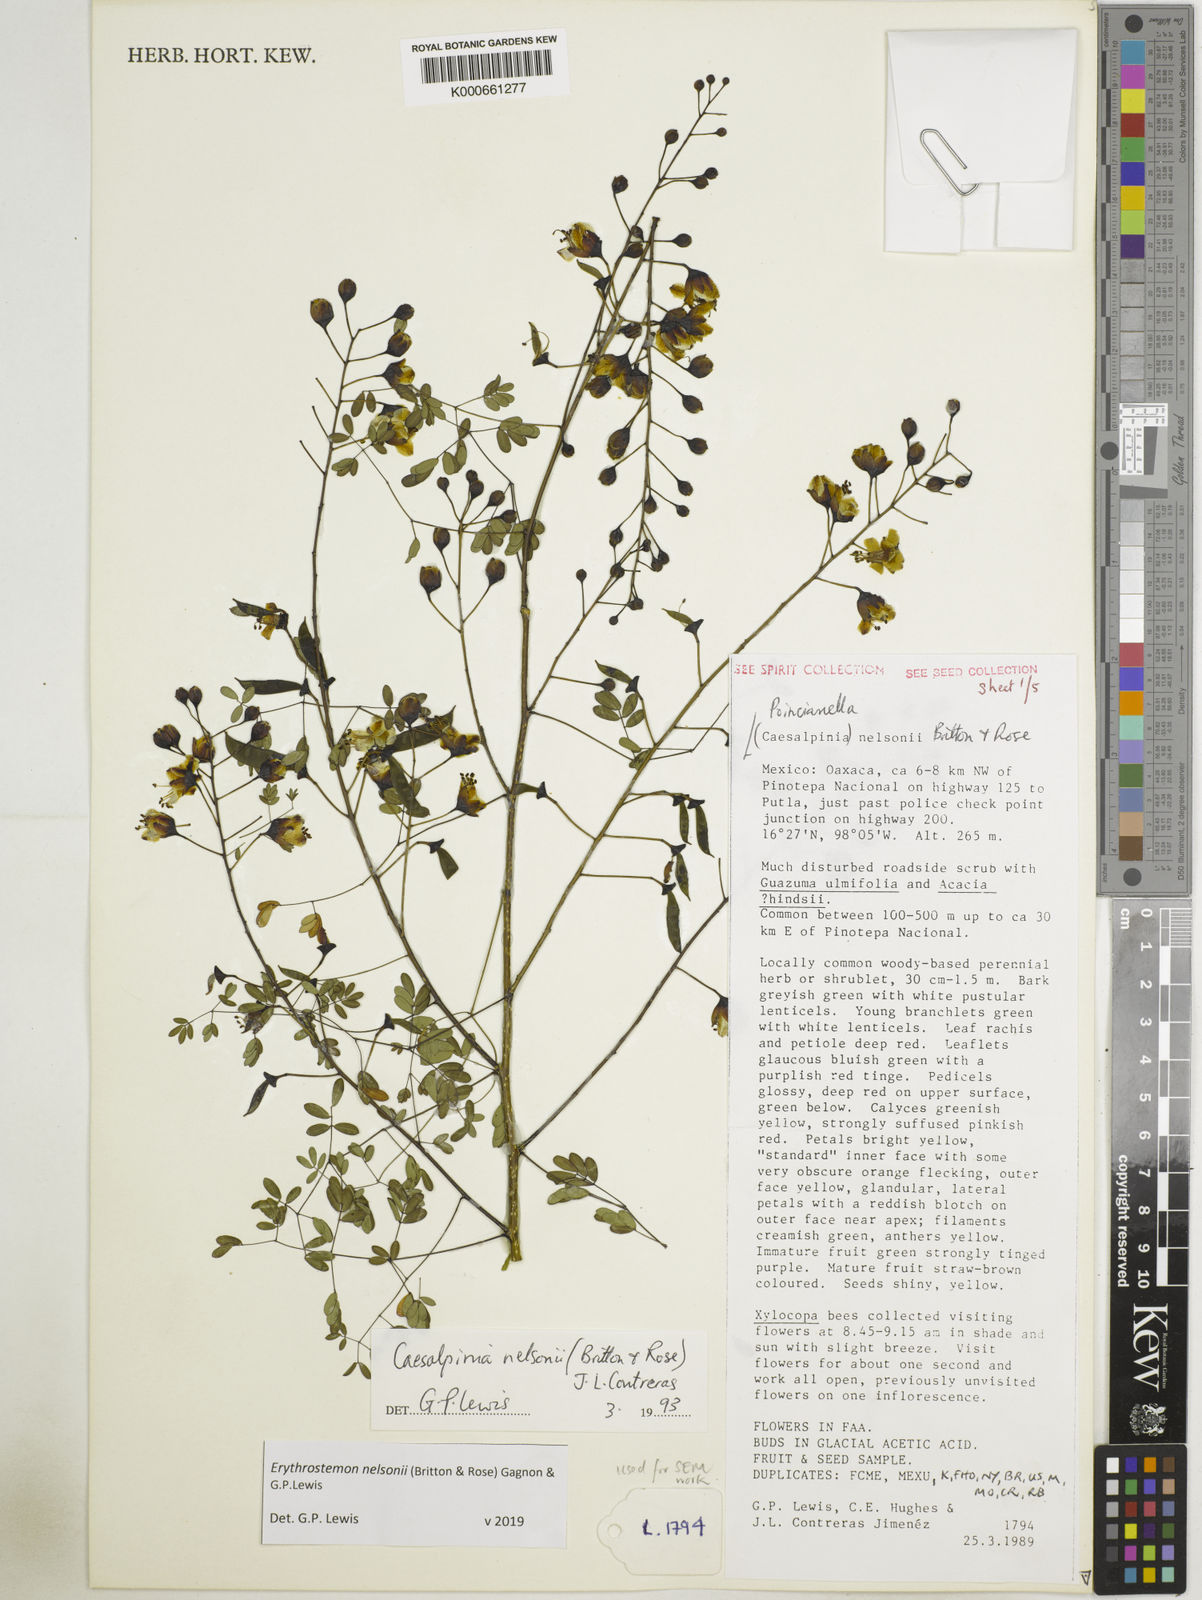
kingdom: Plantae
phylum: Tracheophyta
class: Magnoliopsida
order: Fabales
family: Fabaceae
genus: Erythrostemon
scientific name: Erythrostemon nelsonii
